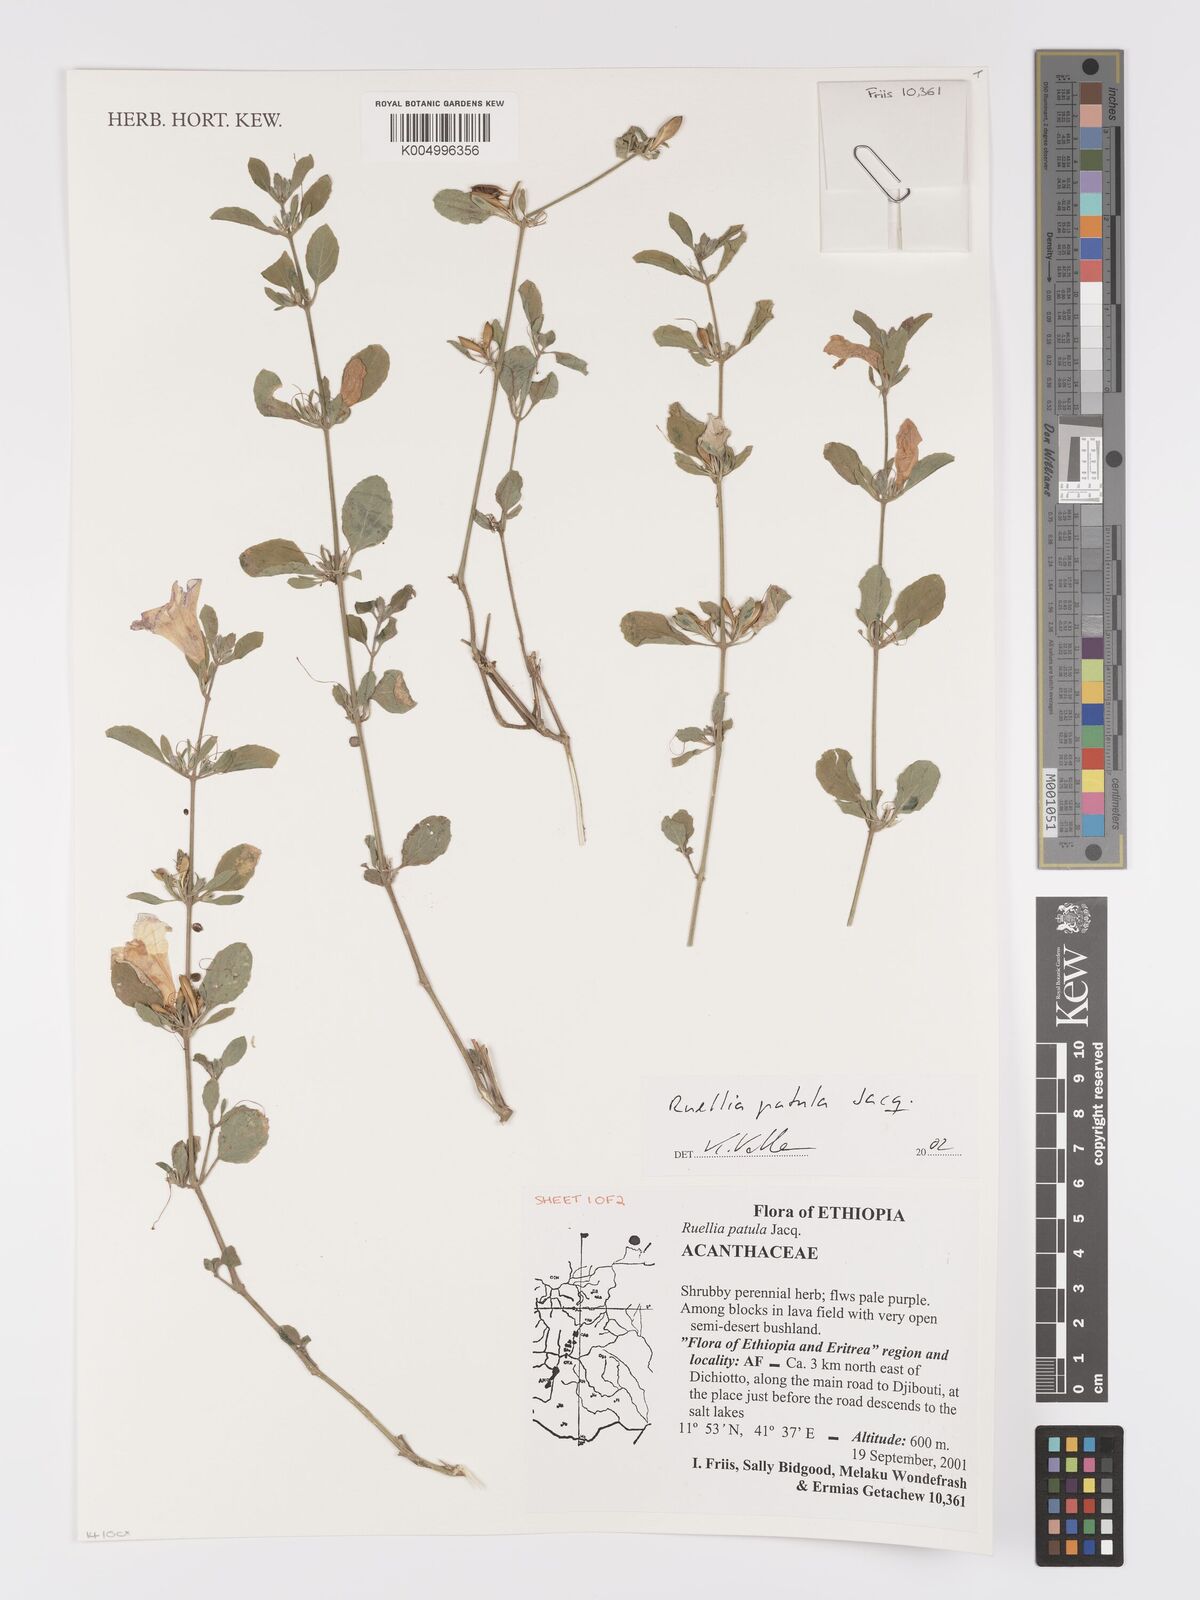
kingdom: Plantae
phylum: Tracheophyta
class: Magnoliopsida
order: Lamiales
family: Acanthaceae
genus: Ruellia
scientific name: Ruellia patula
